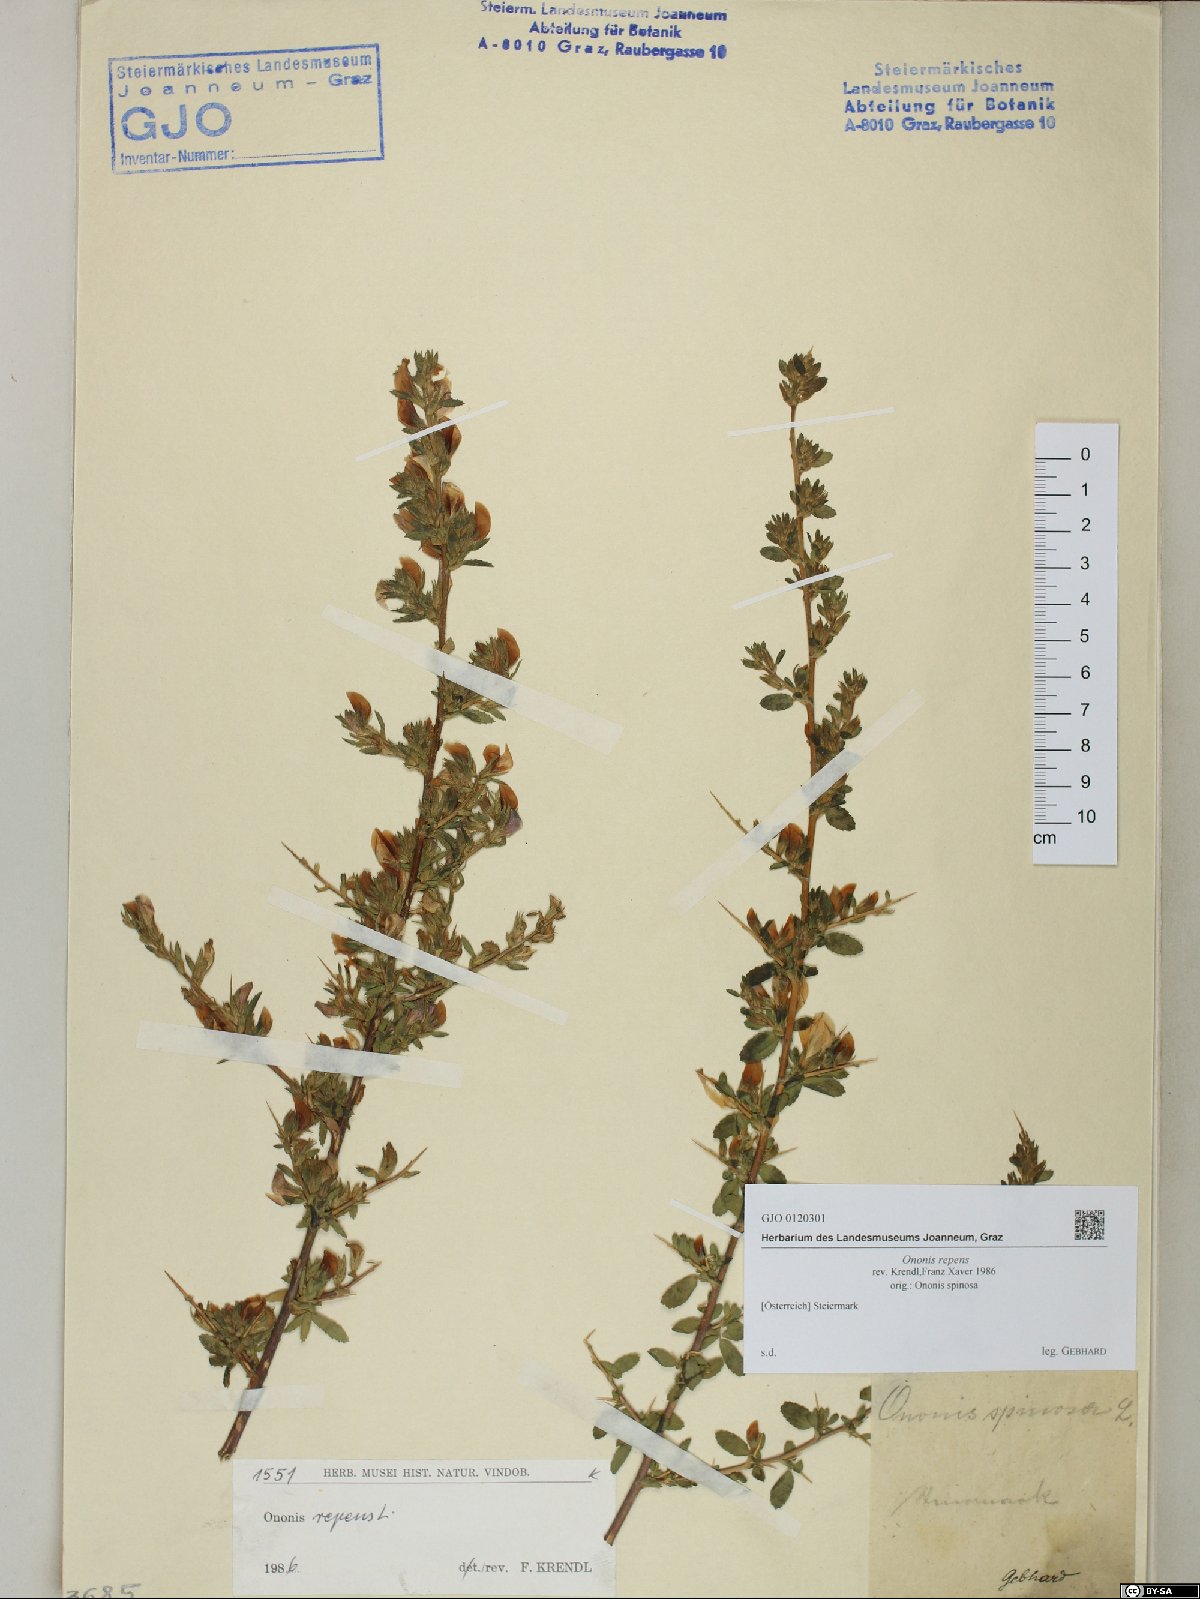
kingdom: Plantae
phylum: Tracheophyta
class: Magnoliopsida
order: Fabales
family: Fabaceae
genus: Ononis
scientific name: Ononis spinosa
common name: Spiny restharrow
